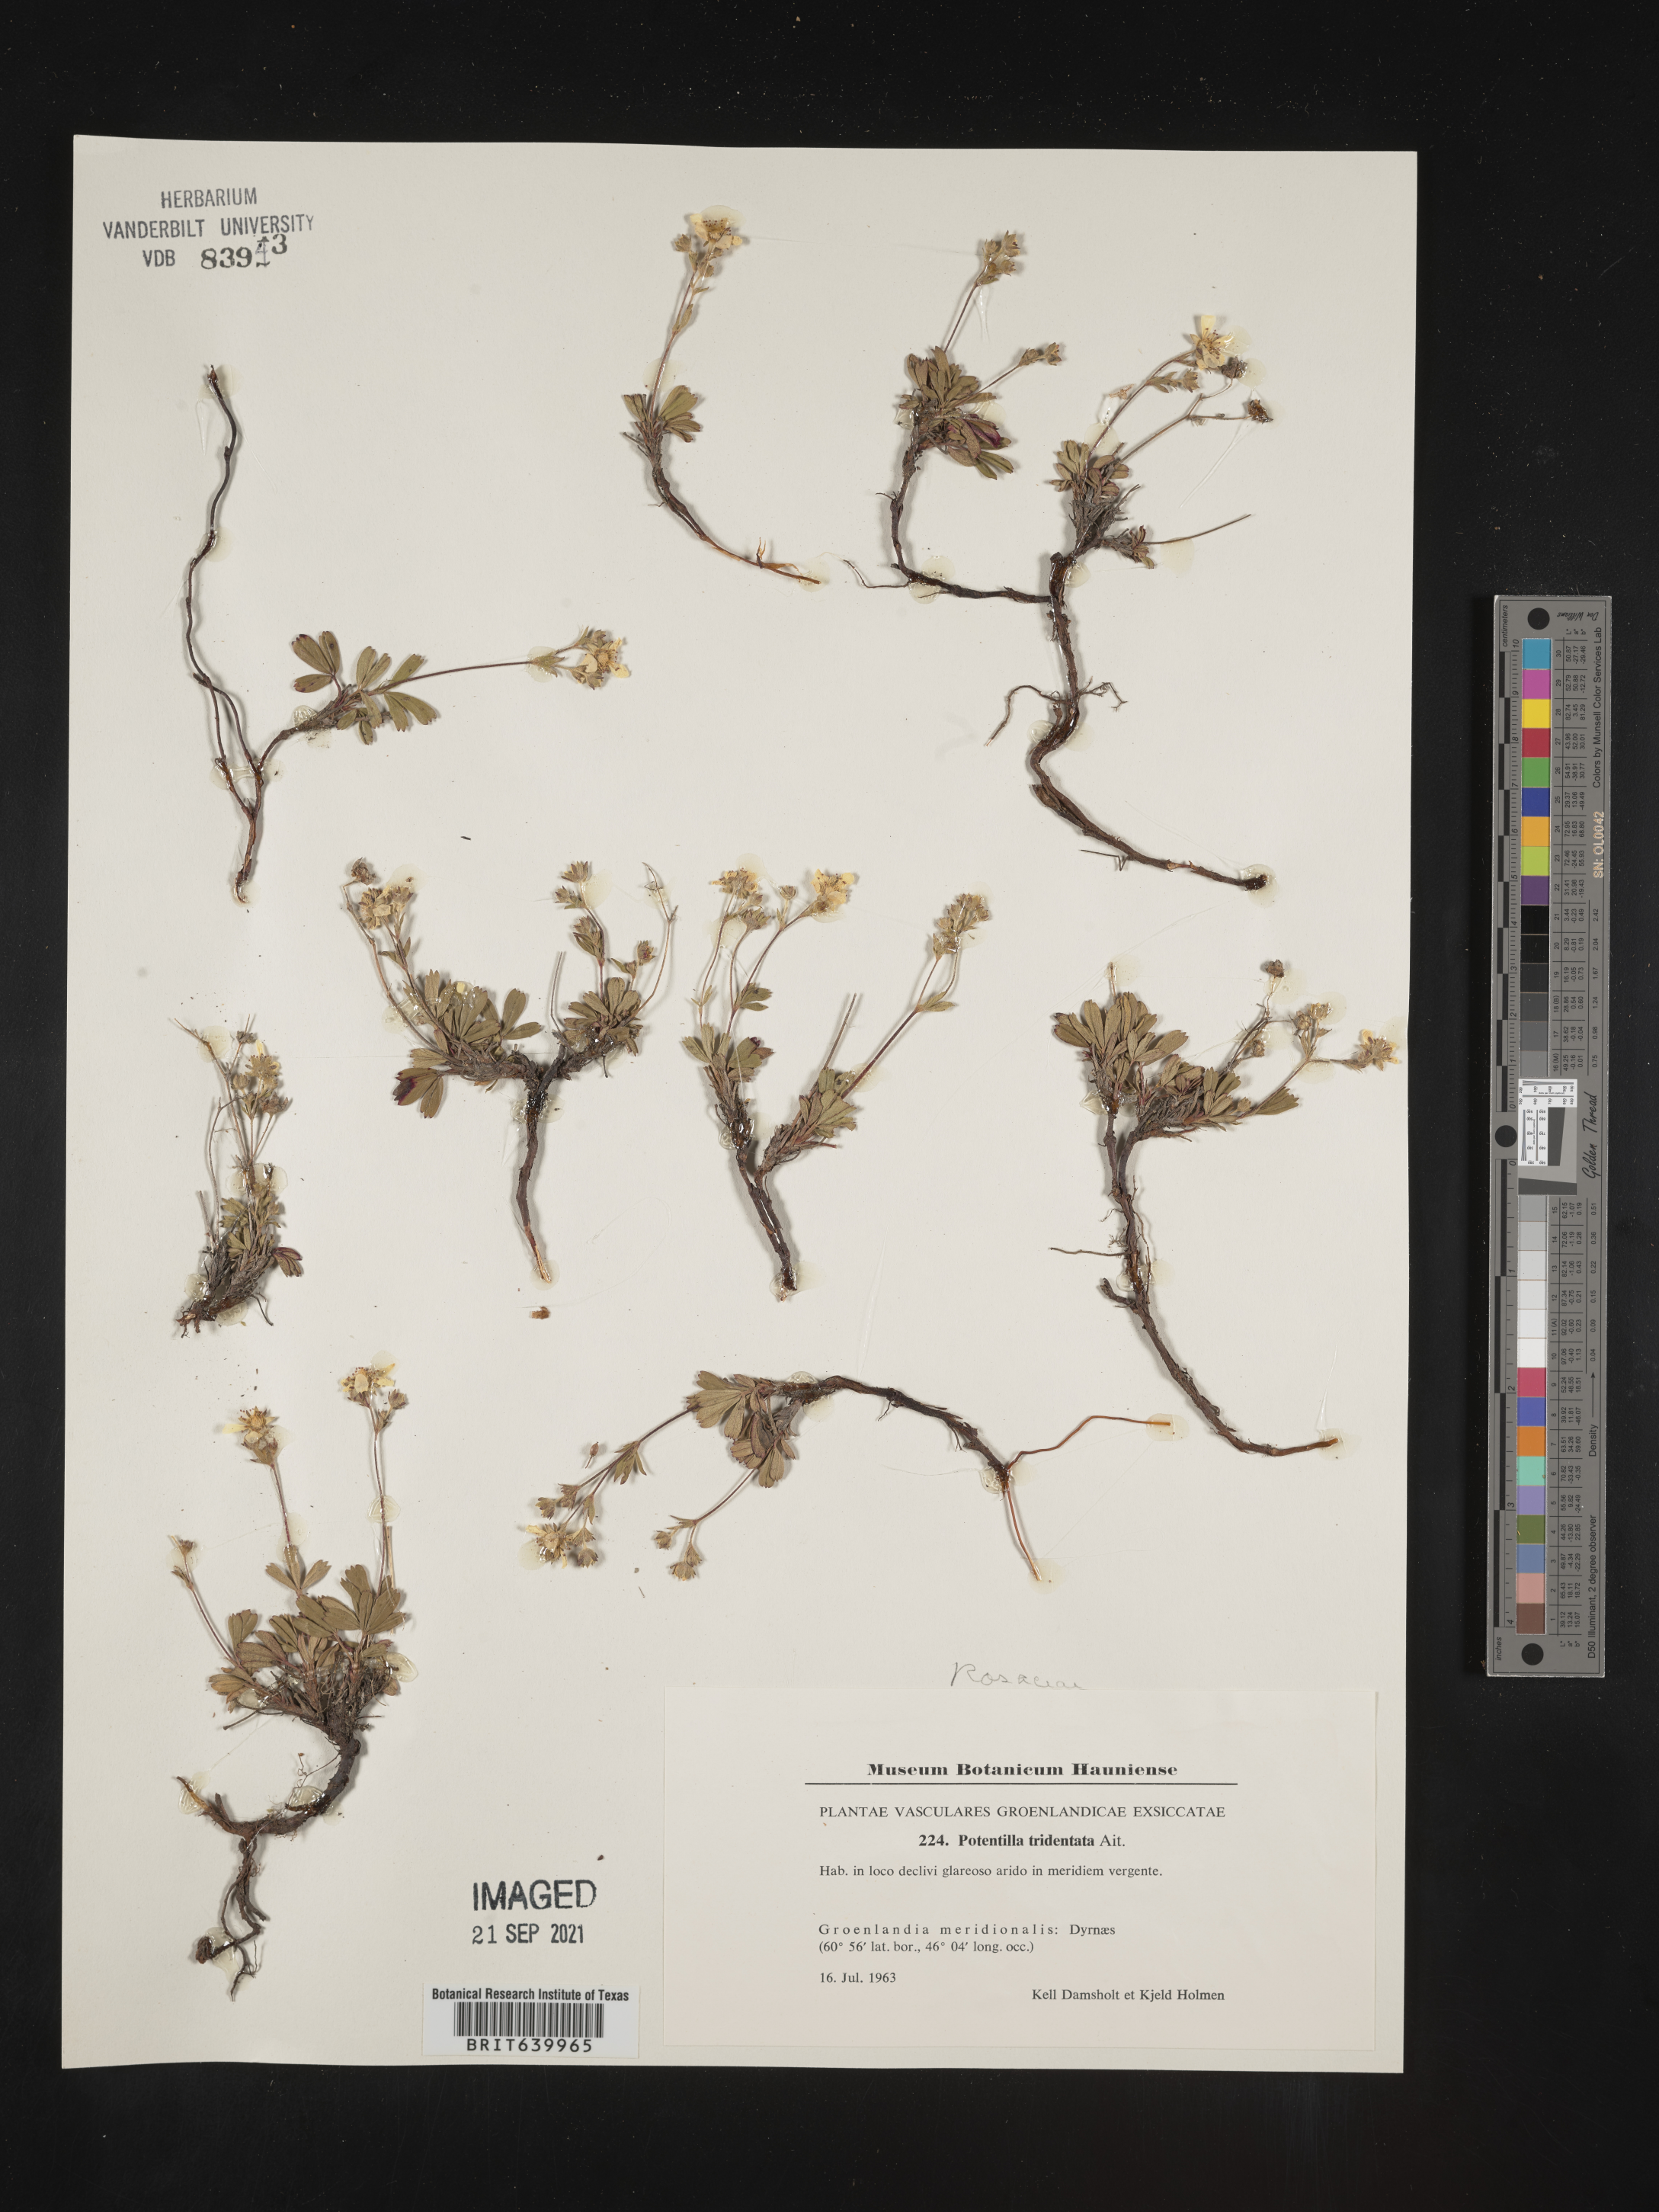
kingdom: Plantae
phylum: Tracheophyta
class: Magnoliopsida
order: Rosales
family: Rosaceae
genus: Potentilla
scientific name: Potentilla
